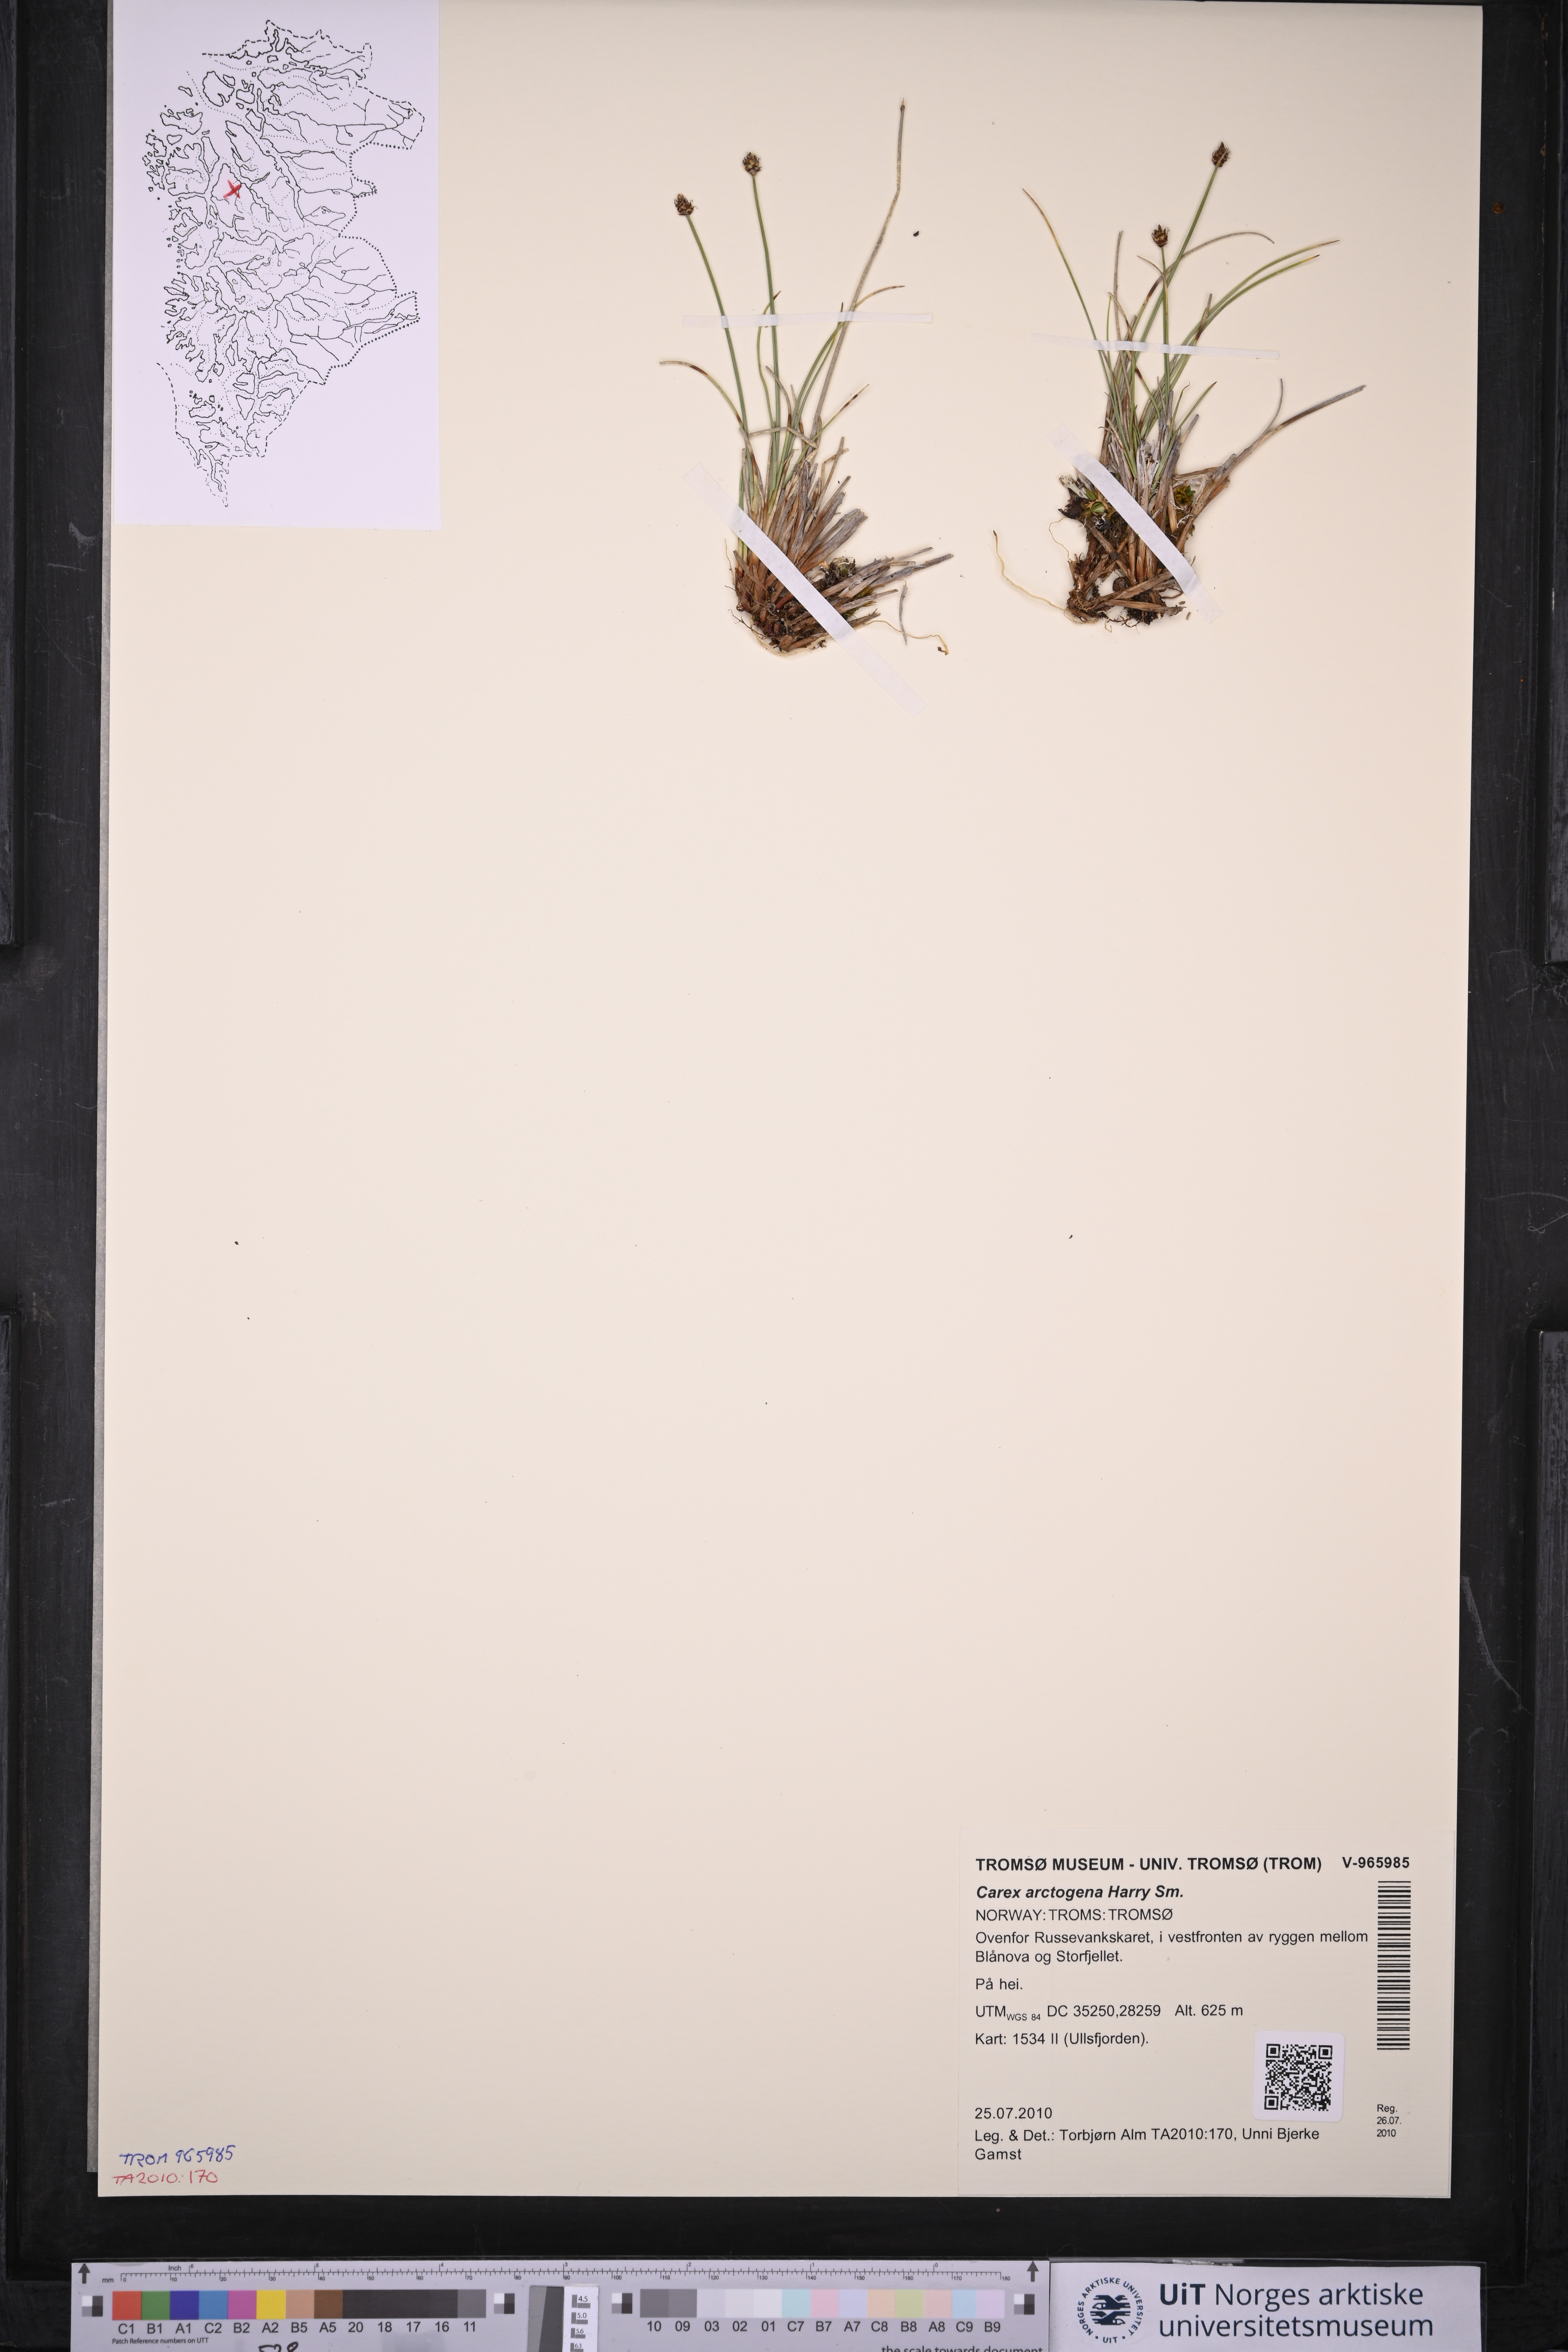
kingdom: Plantae
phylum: Tracheophyta
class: Liliopsida
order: Poales
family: Cyperaceae
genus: Carex
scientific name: Carex arctogena
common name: Black sedge
